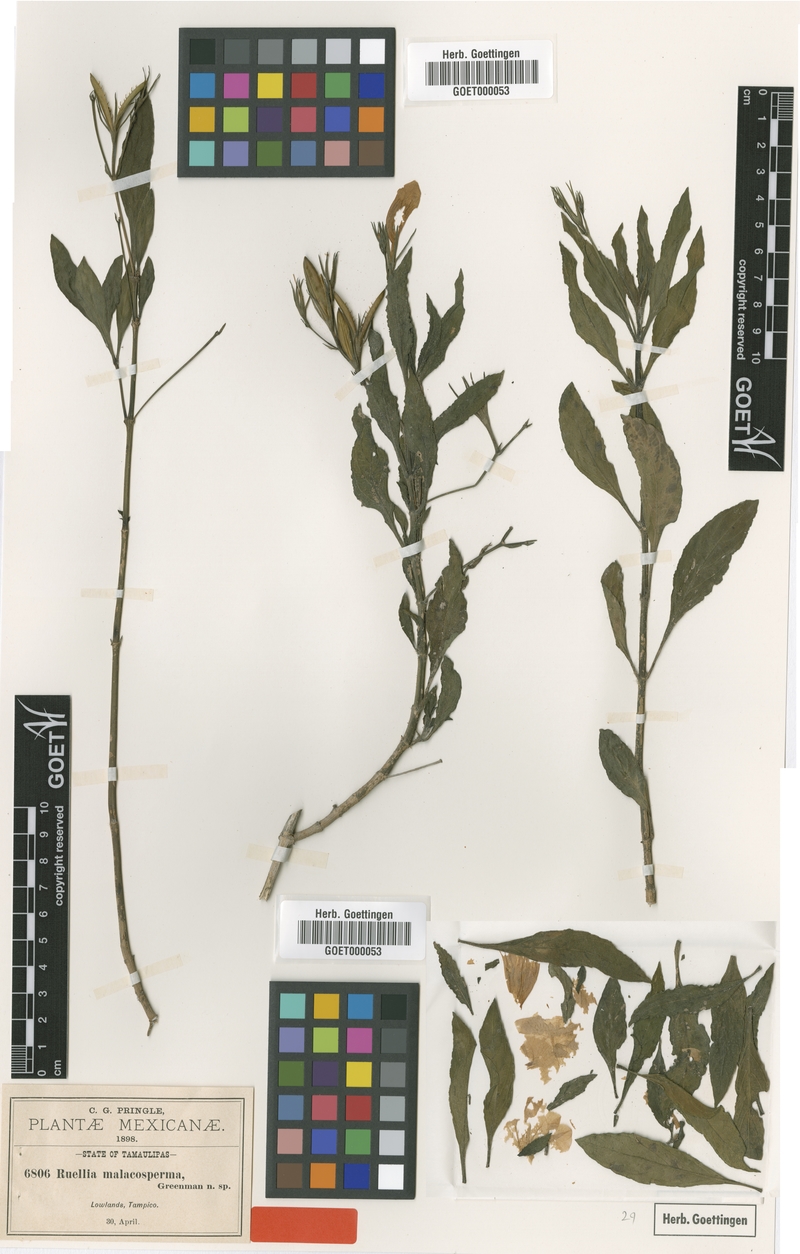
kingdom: Plantae
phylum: Tracheophyta
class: Magnoliopsida
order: Lamiales
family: Acanthaceae
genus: Ruellia
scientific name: Ruellia malacosperma
